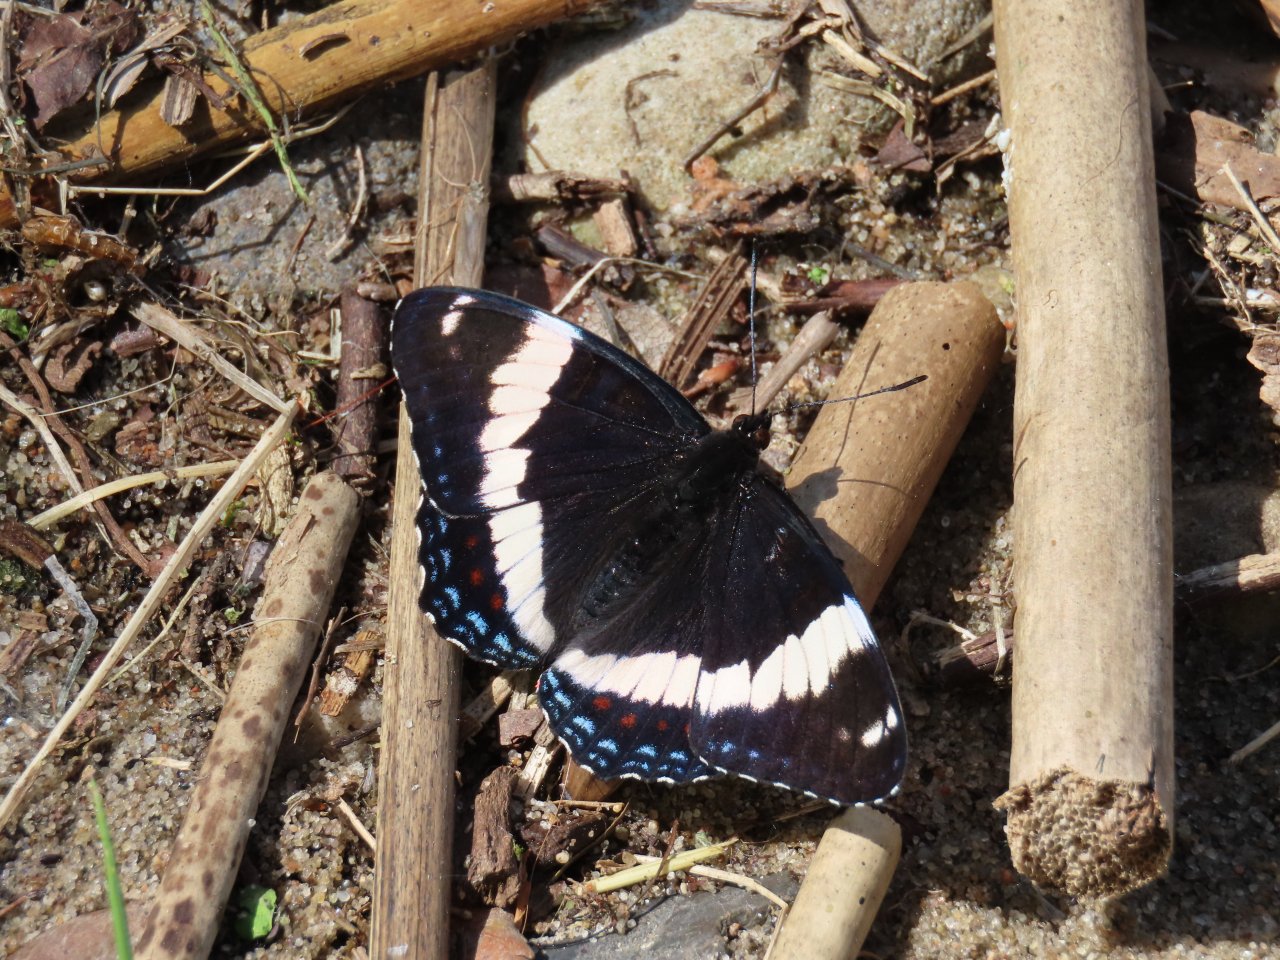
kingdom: Animalia
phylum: Arthropoda
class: Insecta
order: Lepidoptera
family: Nymphalidae
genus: Limenitis
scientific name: Limenitis arthemis
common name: Red-spotted Admiral
